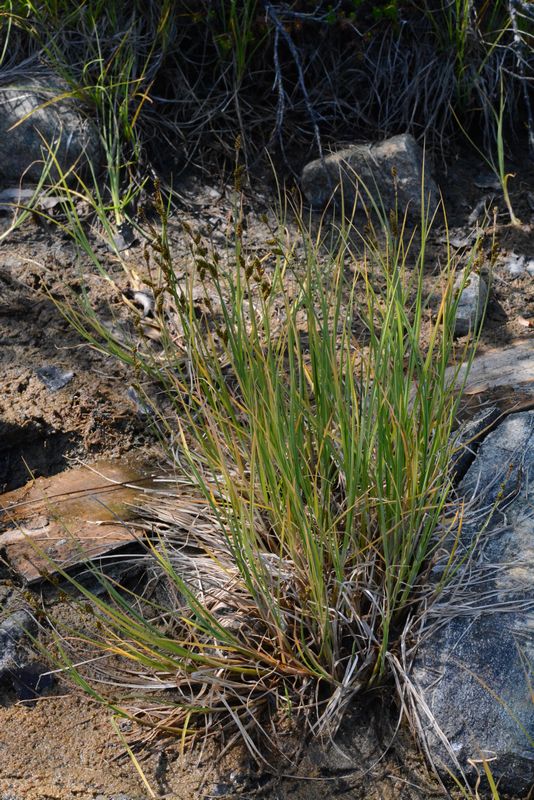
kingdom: Plantae
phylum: Tracheophyta
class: Liliopsida
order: Poales
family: Cyperaceae
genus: Carex
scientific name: Carex mackenziei
